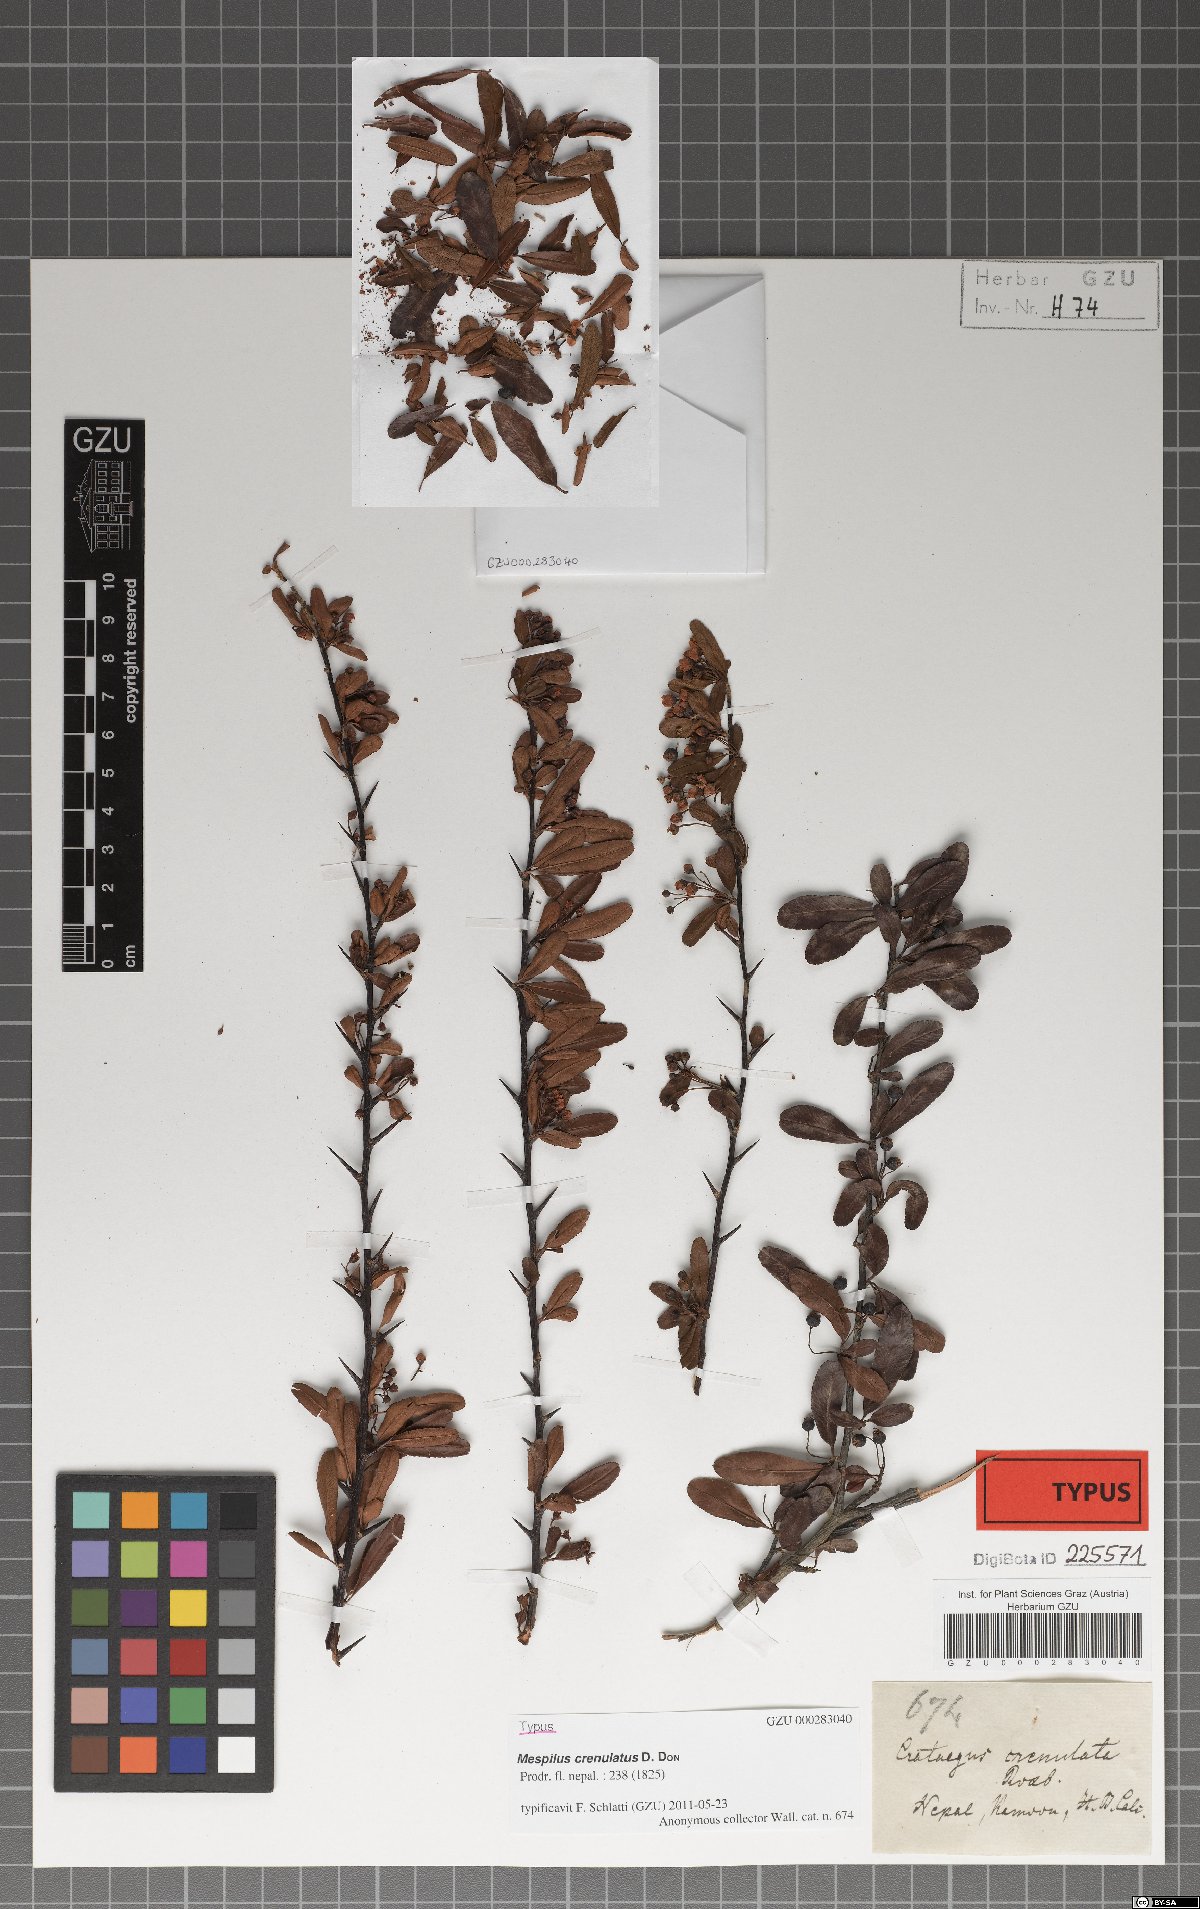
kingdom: Plantae
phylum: Tracheophyta
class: Magnoliopsida
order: Rosales
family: Rosaceae
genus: Pyracantha
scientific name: Pyracantha crenulata
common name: Nepalese firethorn
